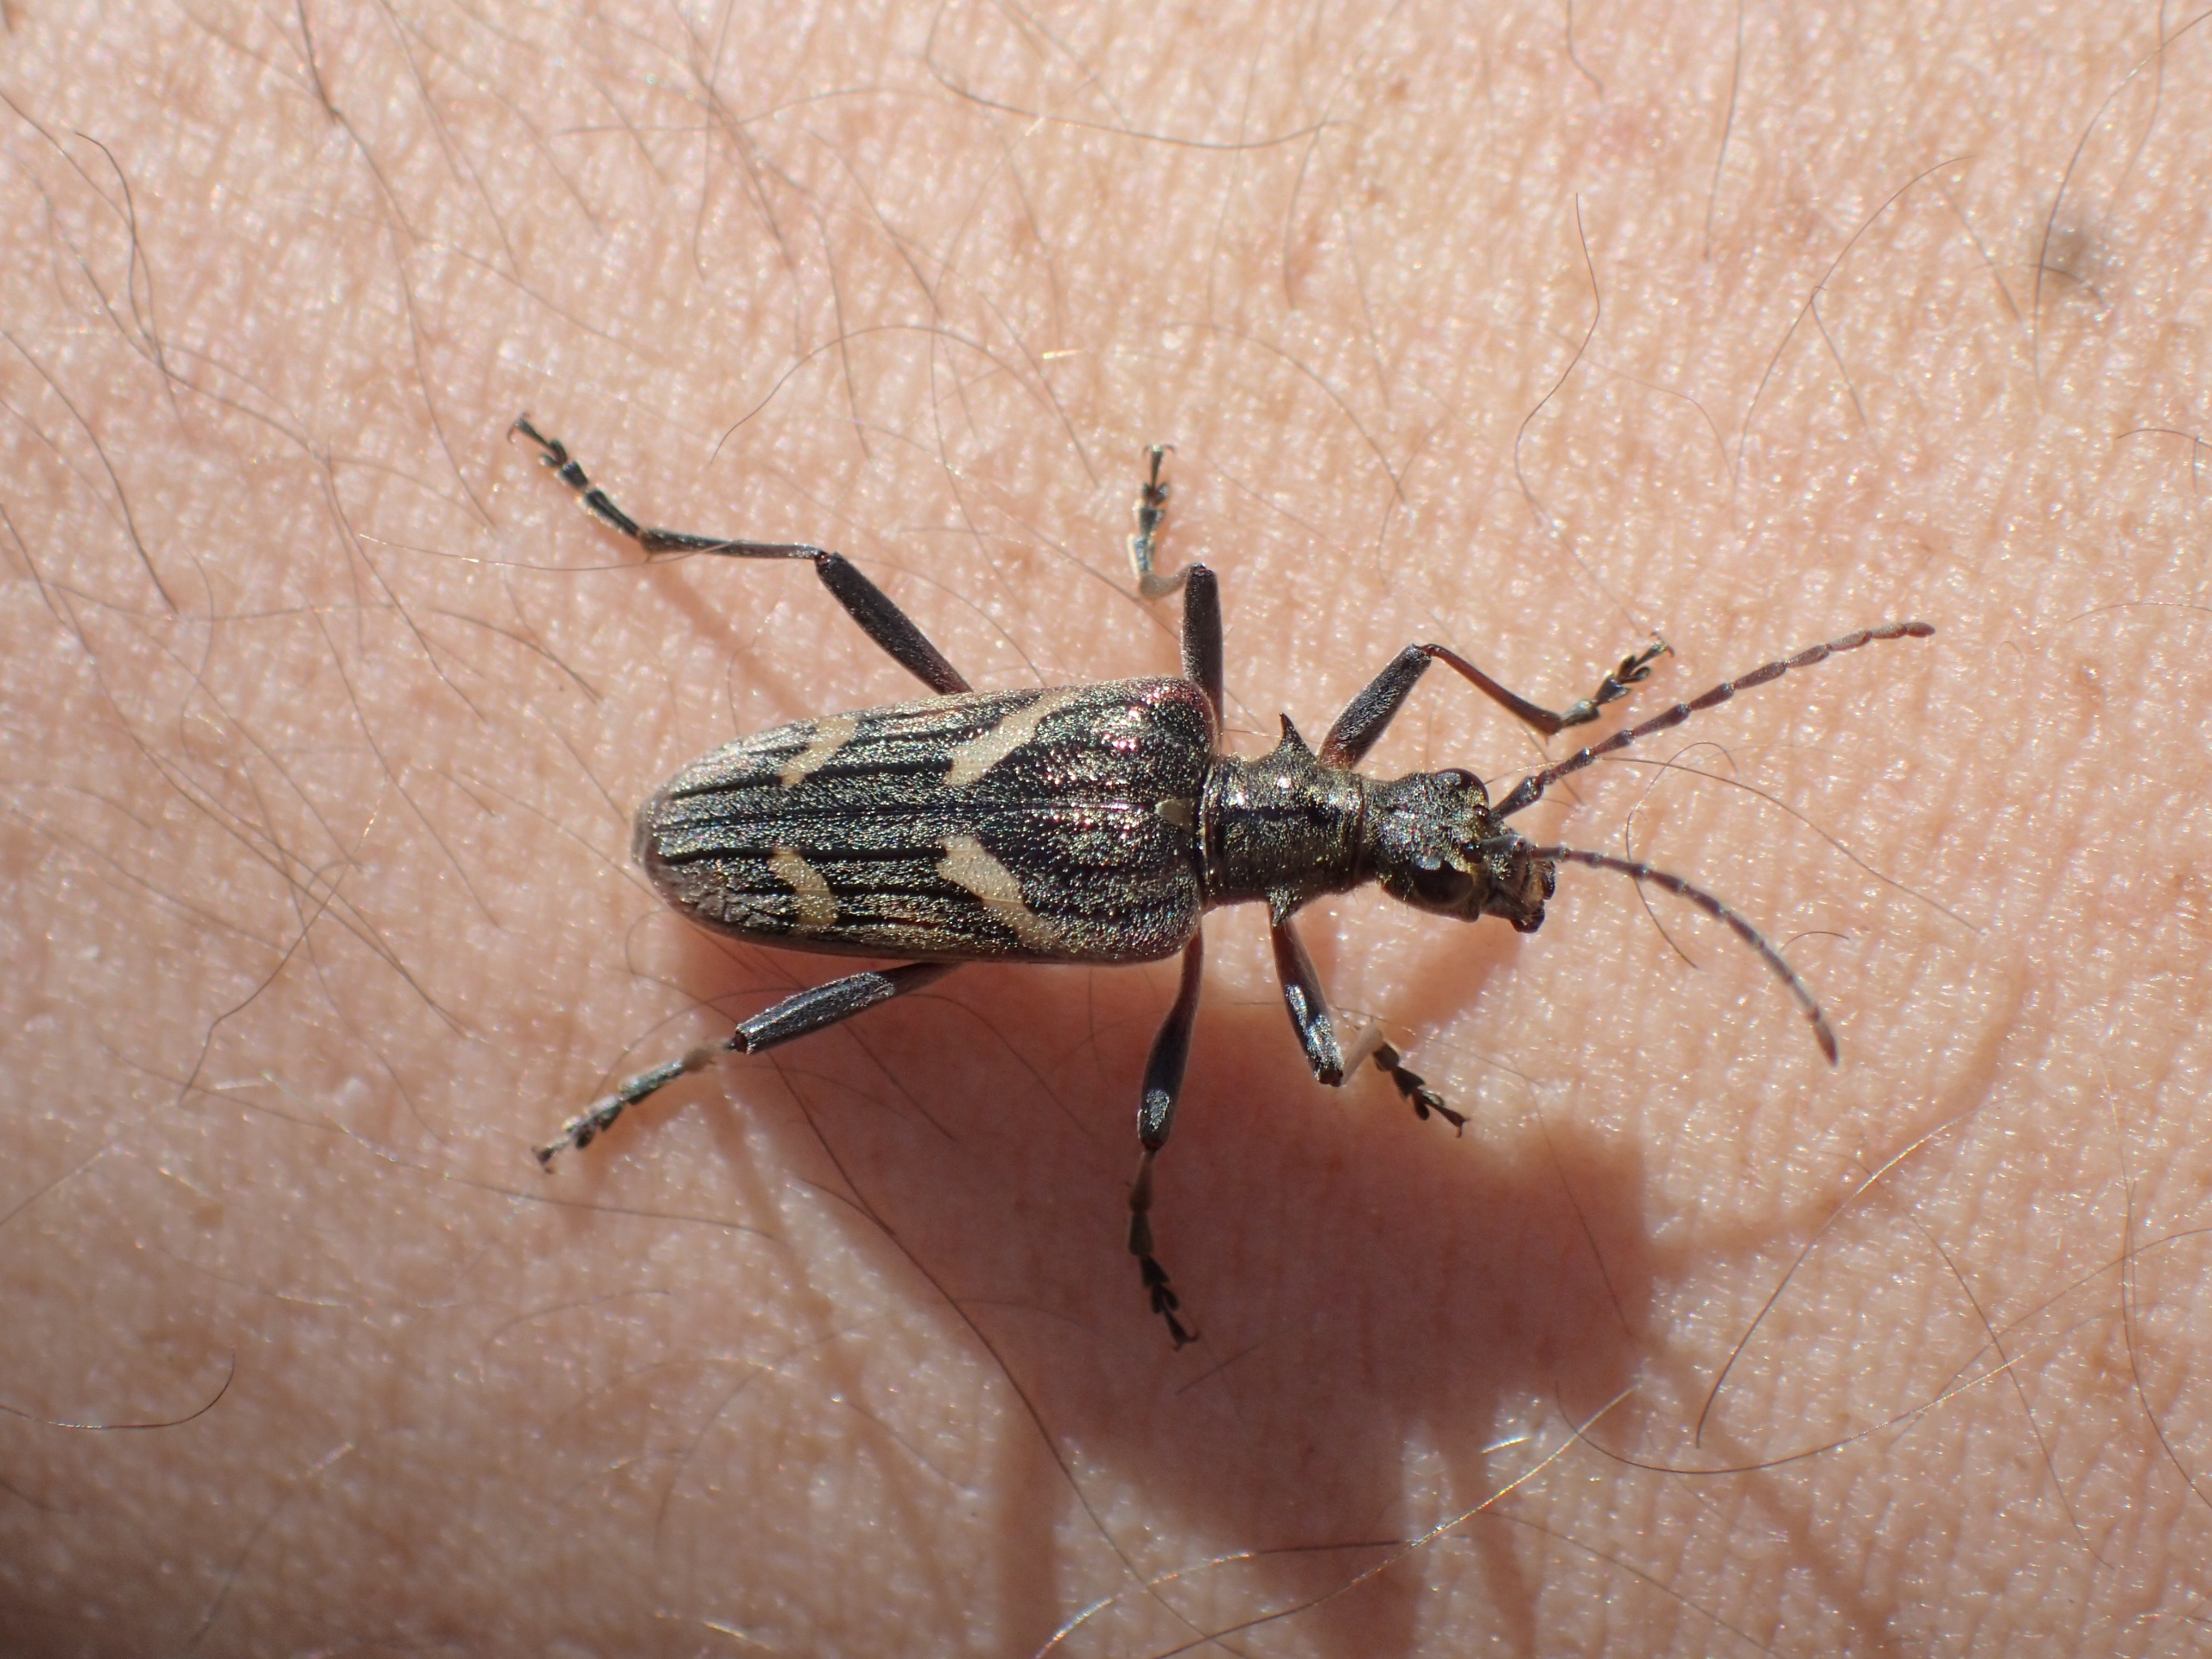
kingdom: Animalia
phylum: Arthropoda
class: Insecta
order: Coleoptera
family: Cerambycidae
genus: Rhagium
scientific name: Rhagium bifasciatum
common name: Båndet tandbuk
